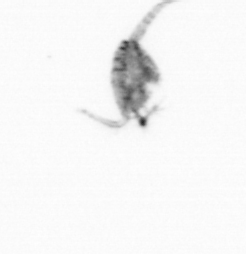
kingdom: Animalia
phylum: Arthropoda
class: Copepoda
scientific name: Copepoda
